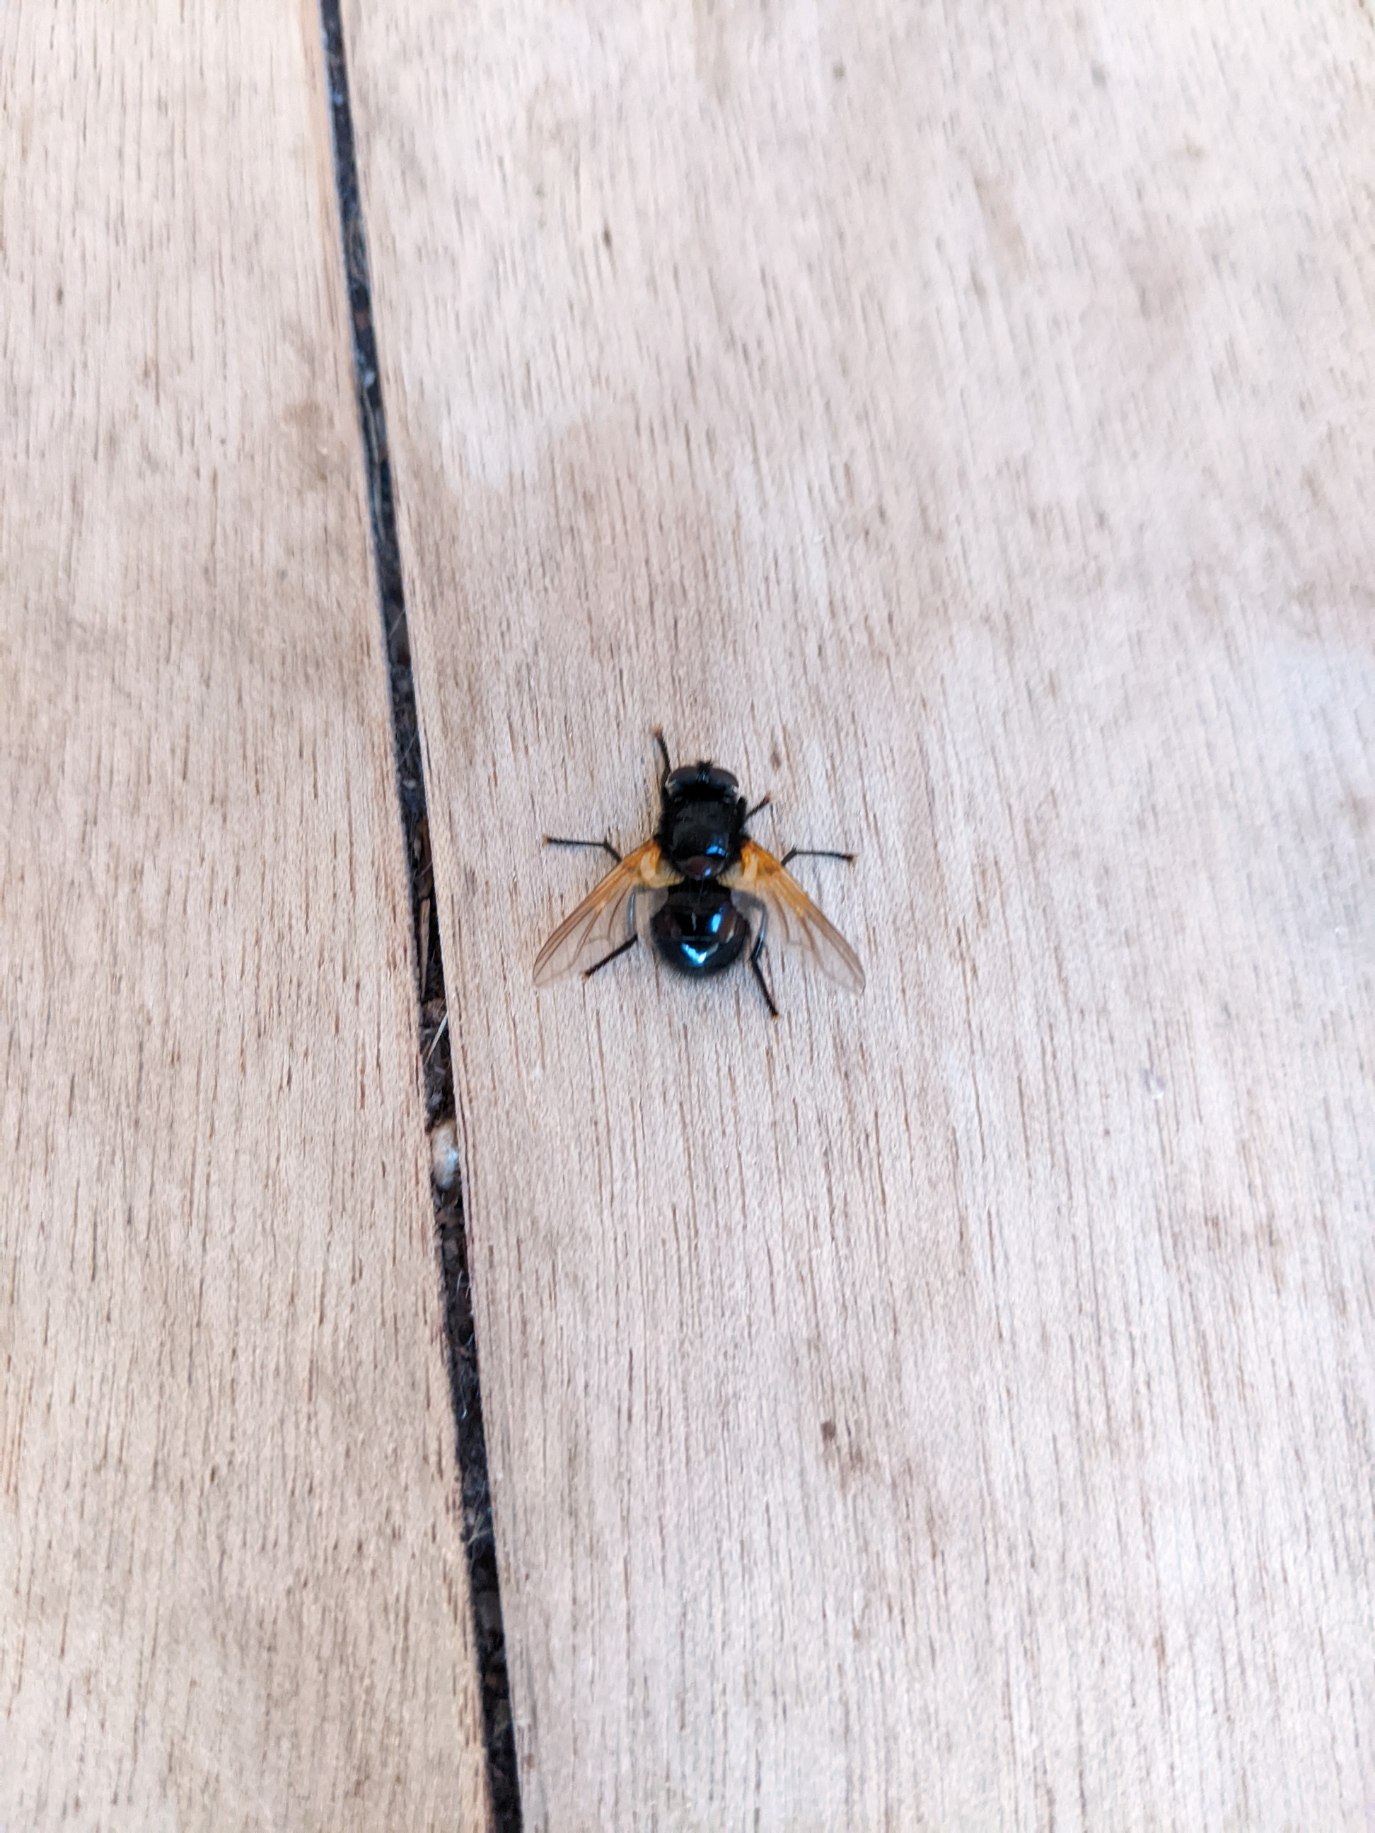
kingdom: Animalia
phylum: Arthropoda
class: Insecta
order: Diptera
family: Muscidae
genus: Mesembrina
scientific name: Mesembrina meridiana
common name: Gulvinget flue
